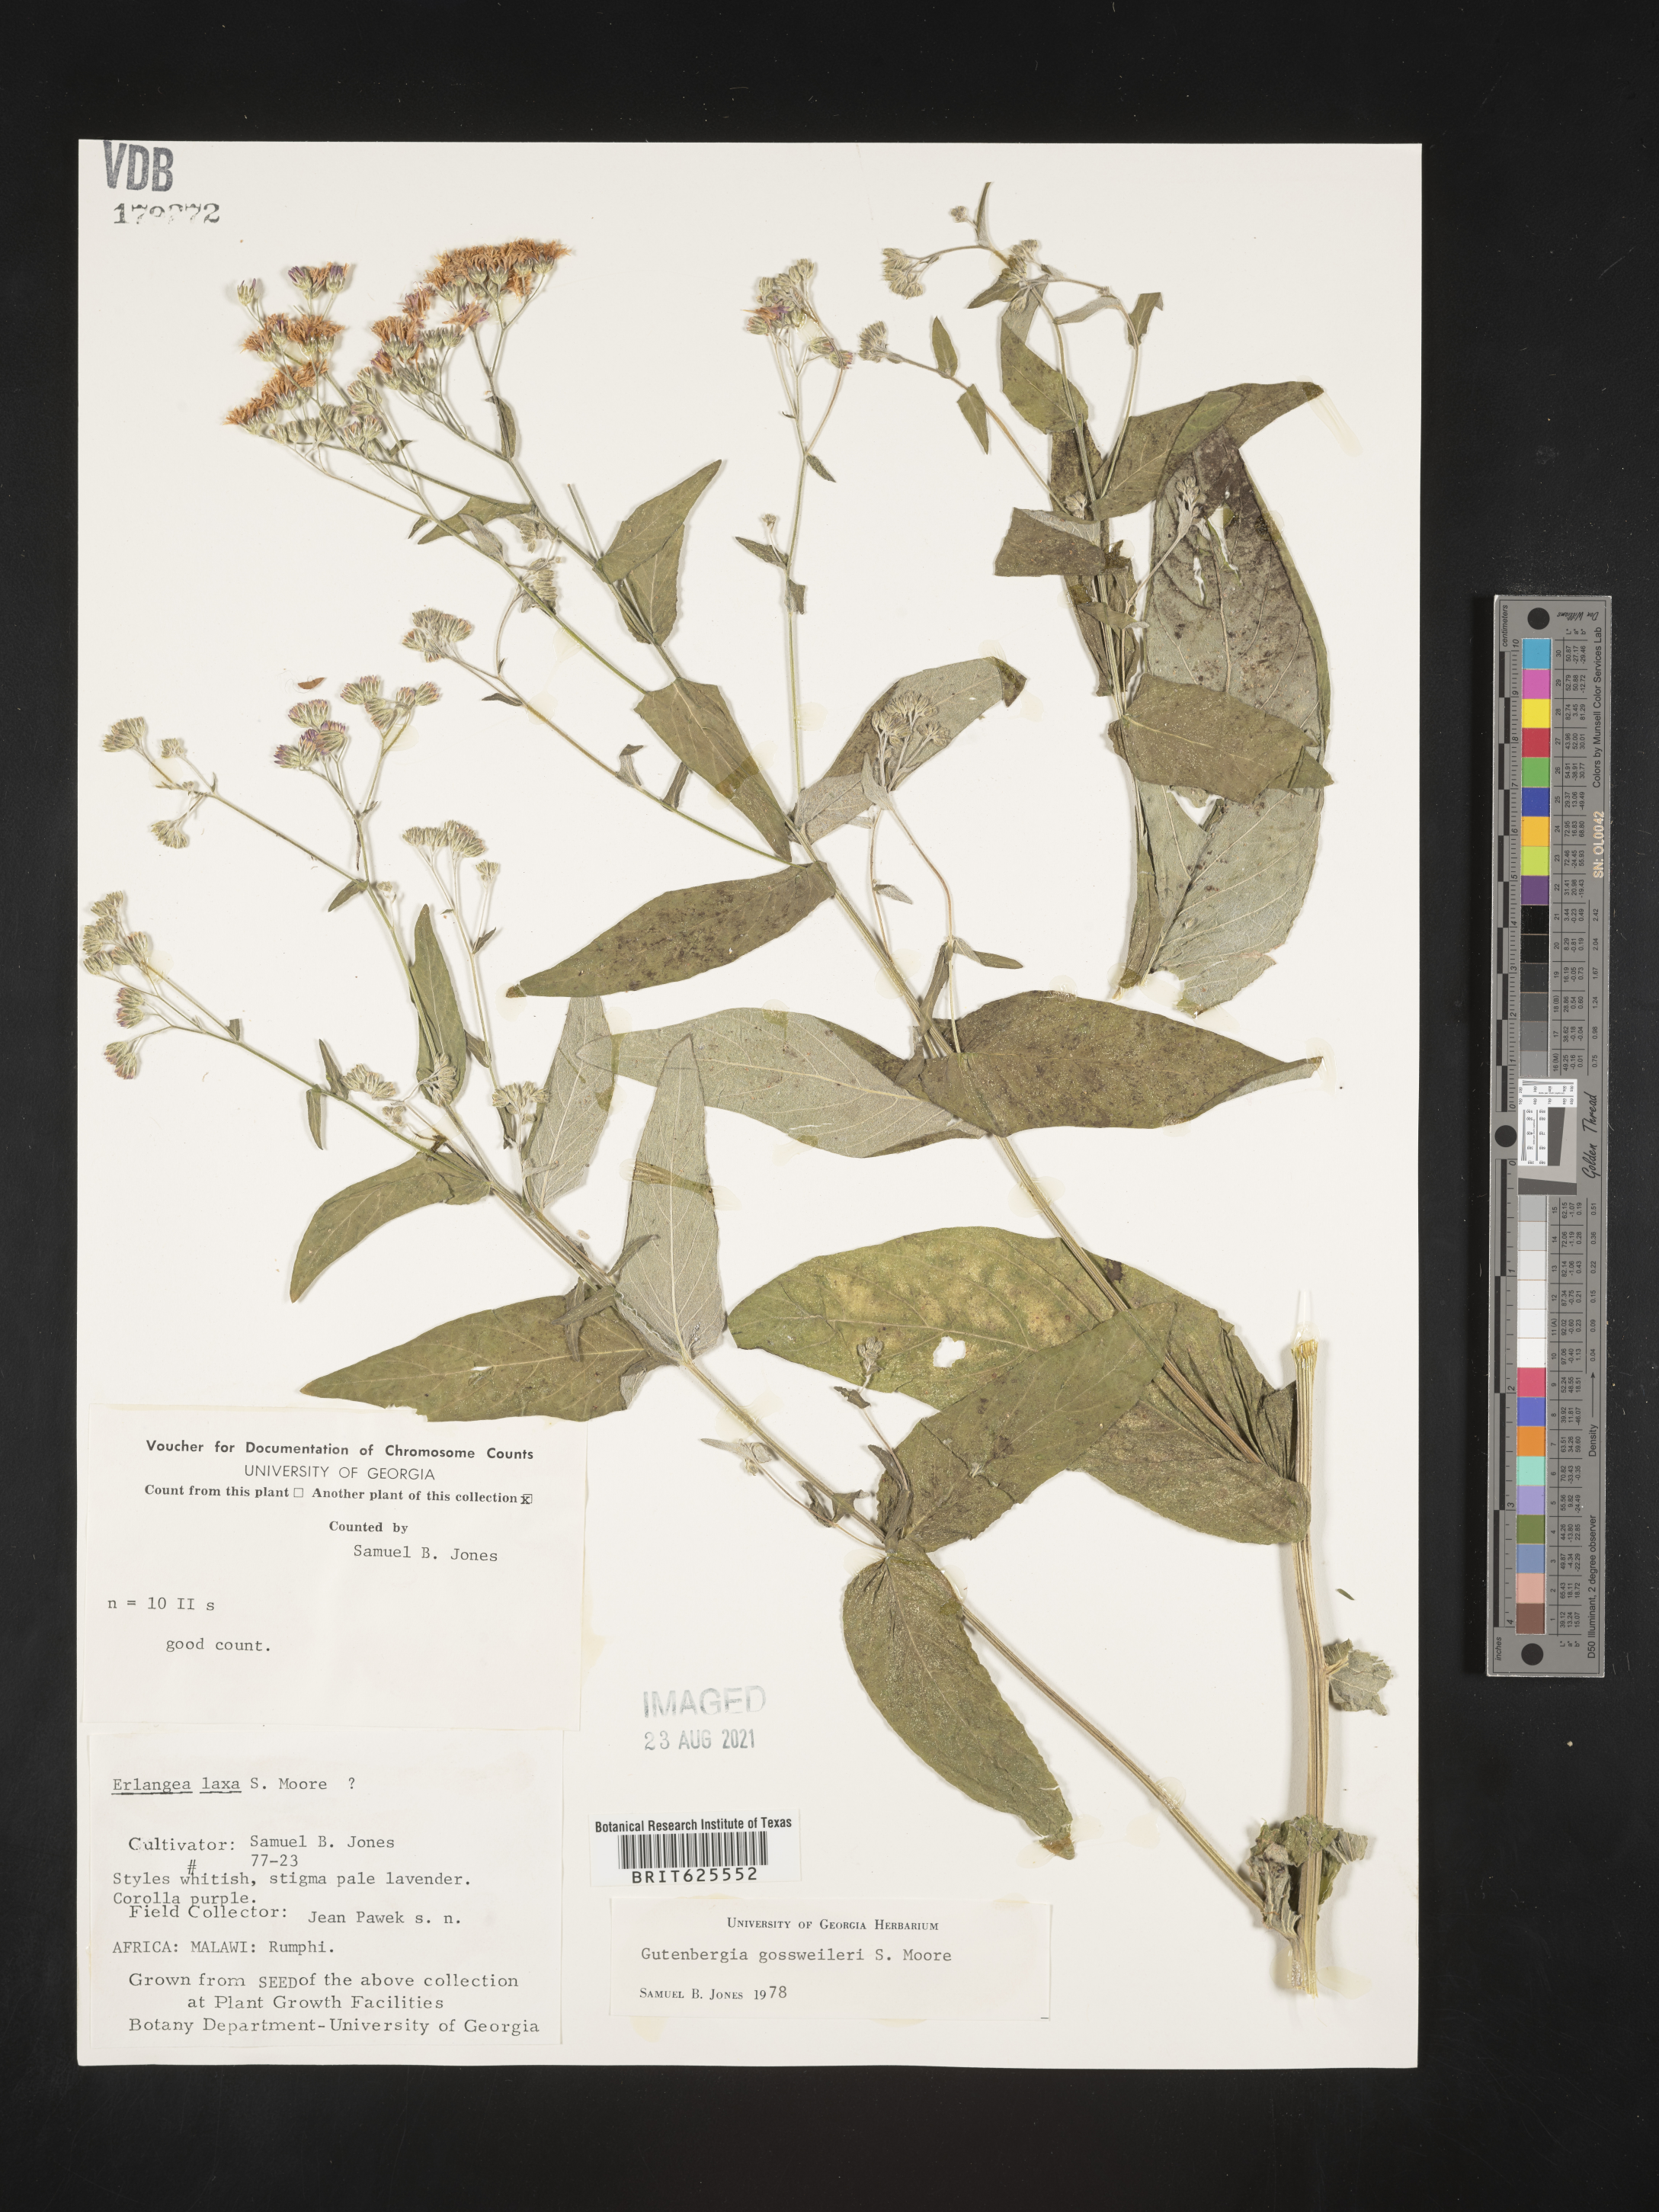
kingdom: Plantae
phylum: Tracheophyta
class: Magnoliopsida
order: Asterales
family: Asteraceae
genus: Gutenbergia
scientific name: Gutenbergia gossweileri
